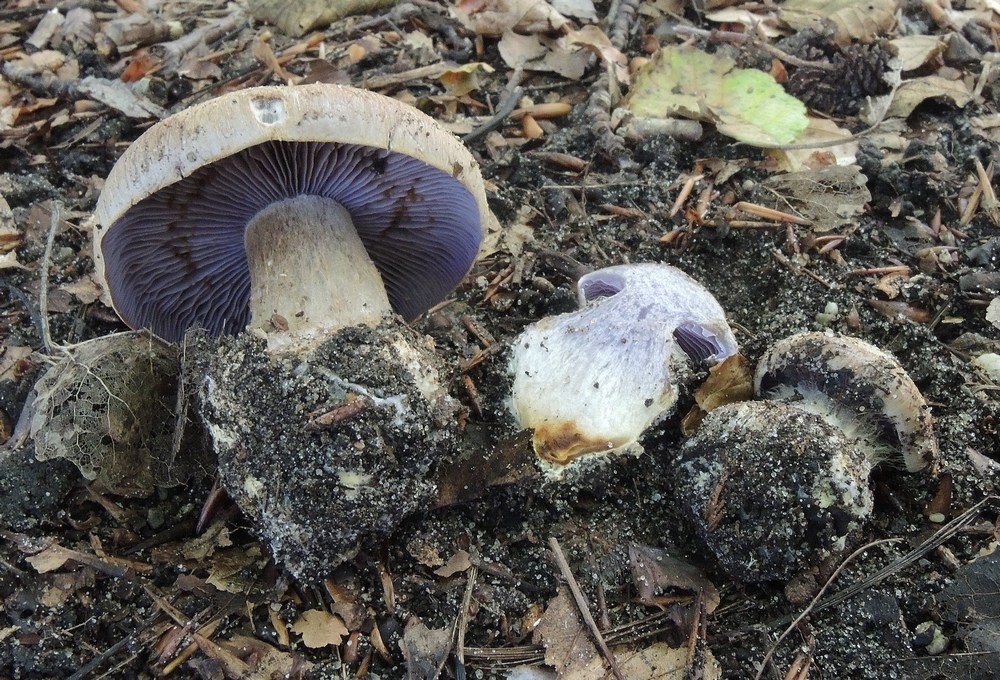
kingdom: Fungi
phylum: Basidiomycota
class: Agaricomycetes
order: Agaricales
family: Cortinariaceae
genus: Phlegmacium
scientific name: Phlegmacium luhmannii
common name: musegrå slørhat
